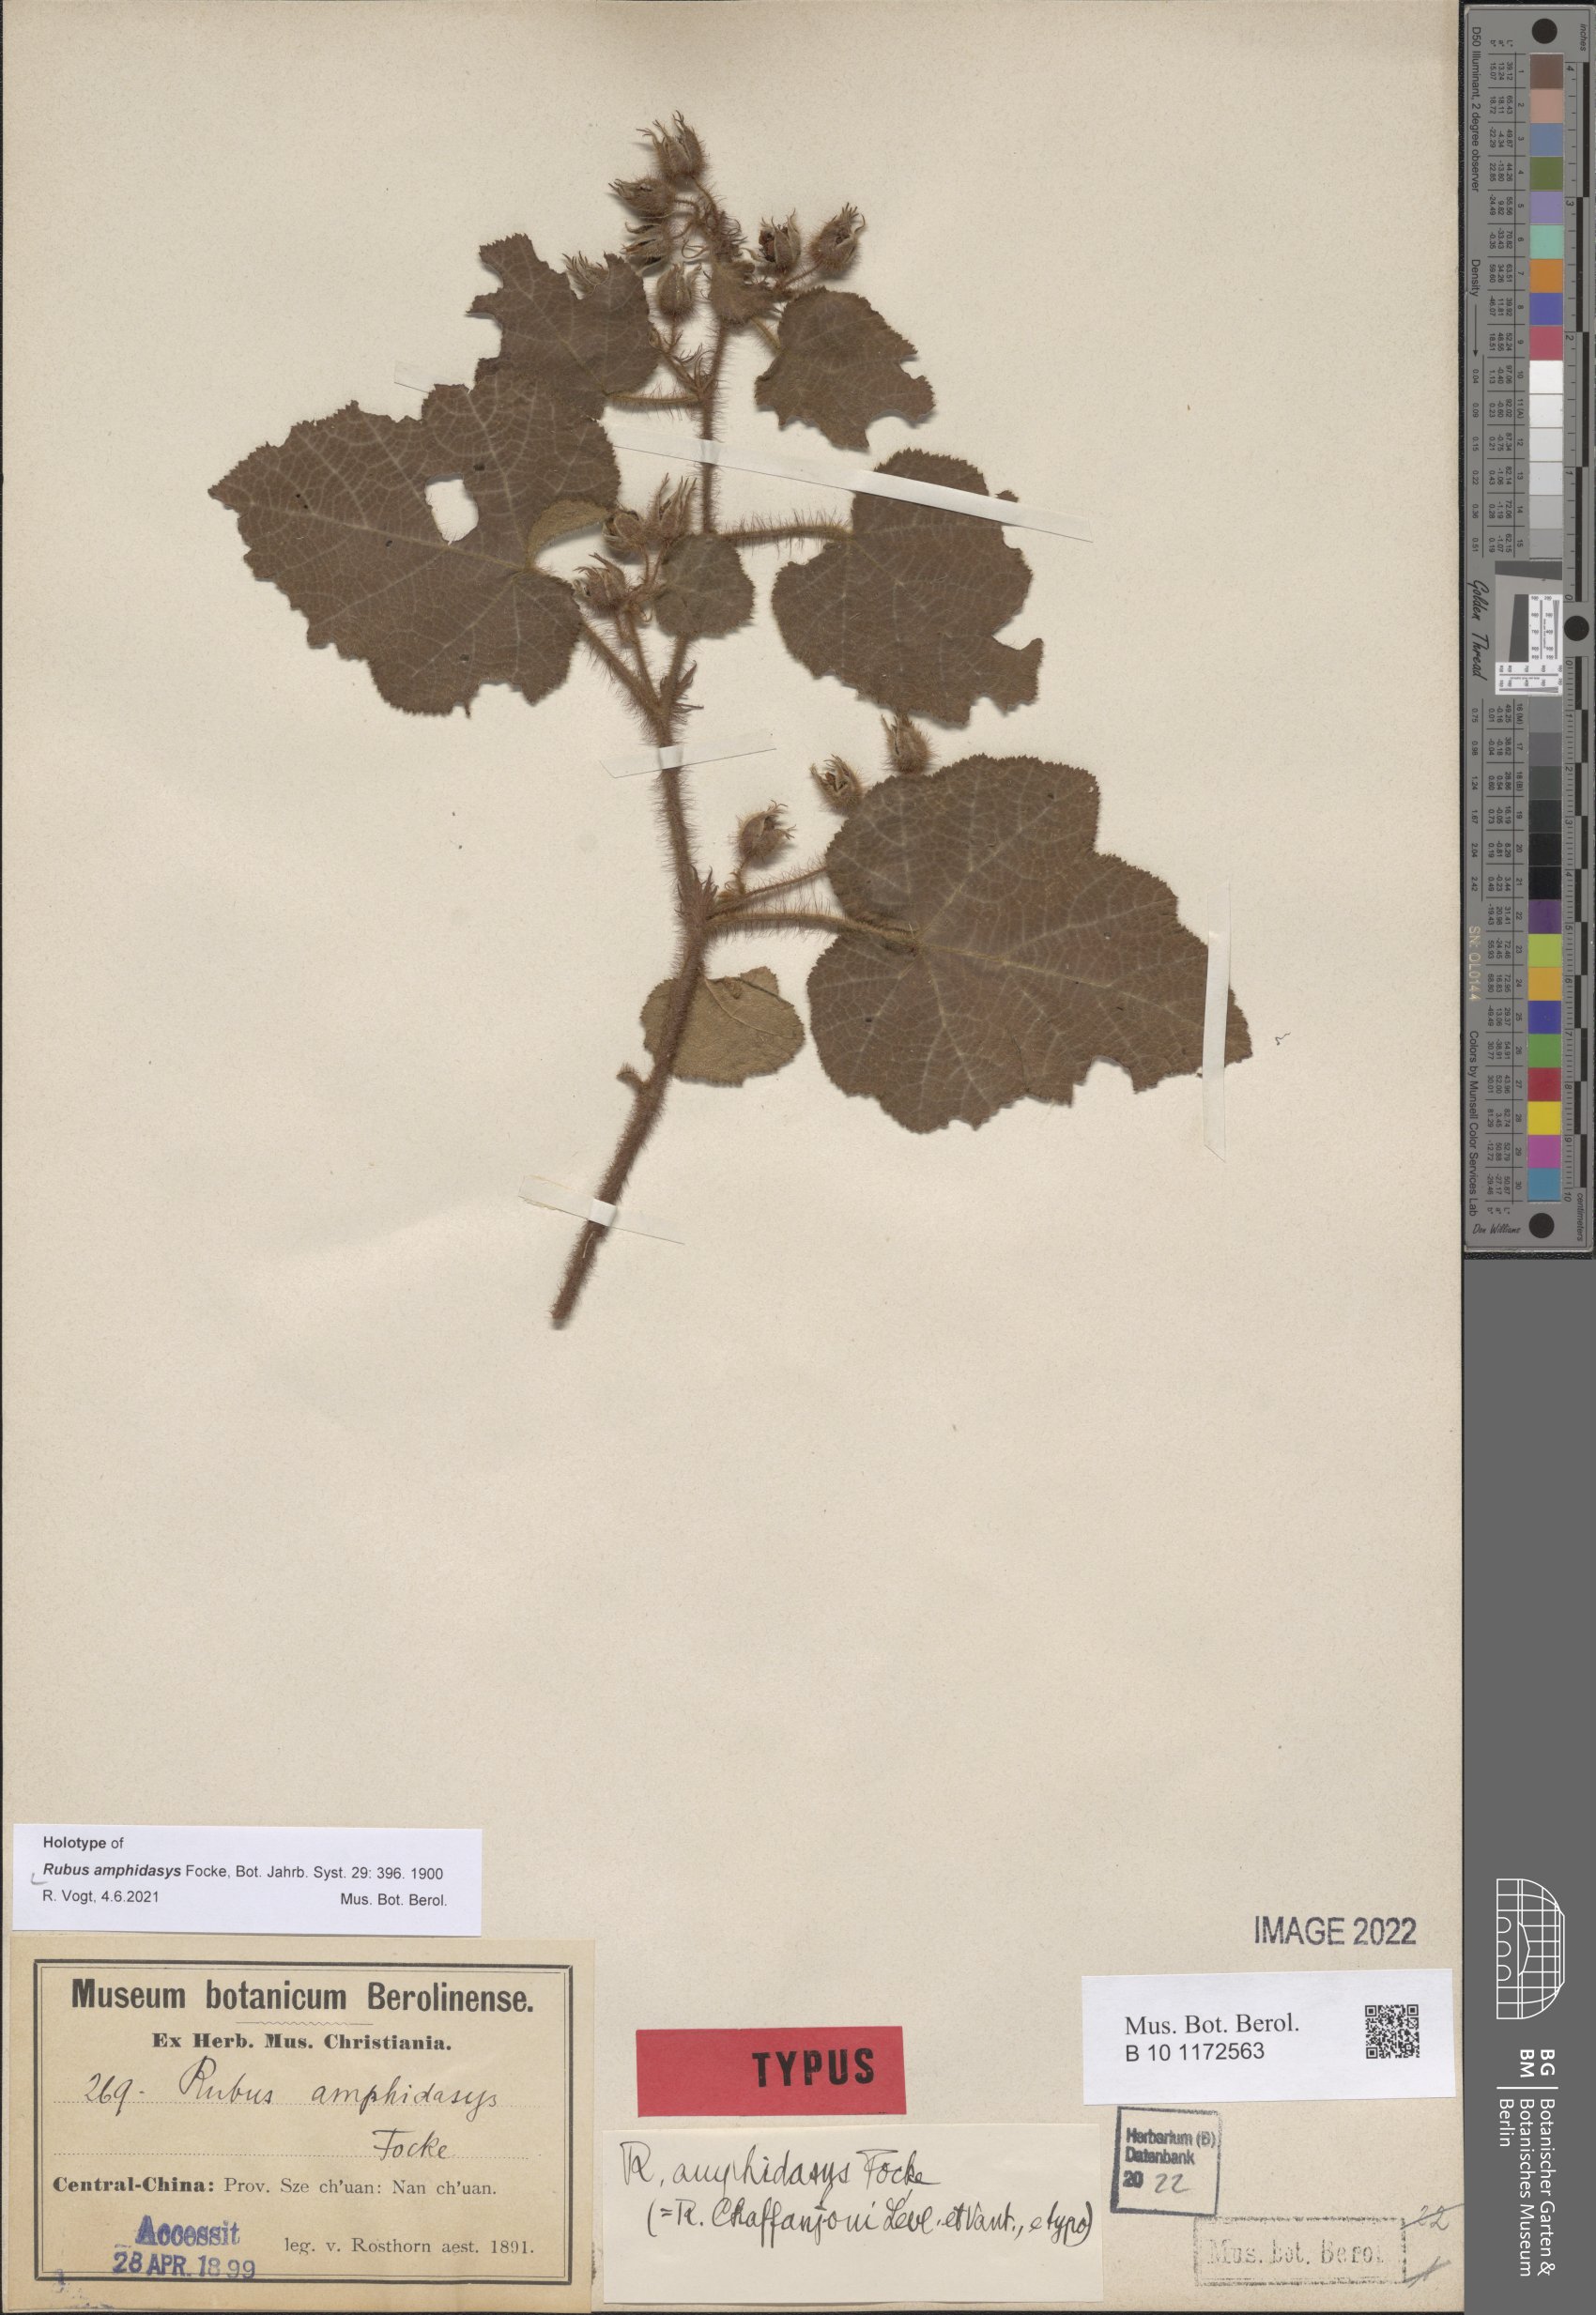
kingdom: Plantae
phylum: Tracheophyta
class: Magnoliopsida
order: Rosales
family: Rosaceae
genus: Rubus
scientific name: Rubus amphidasys
